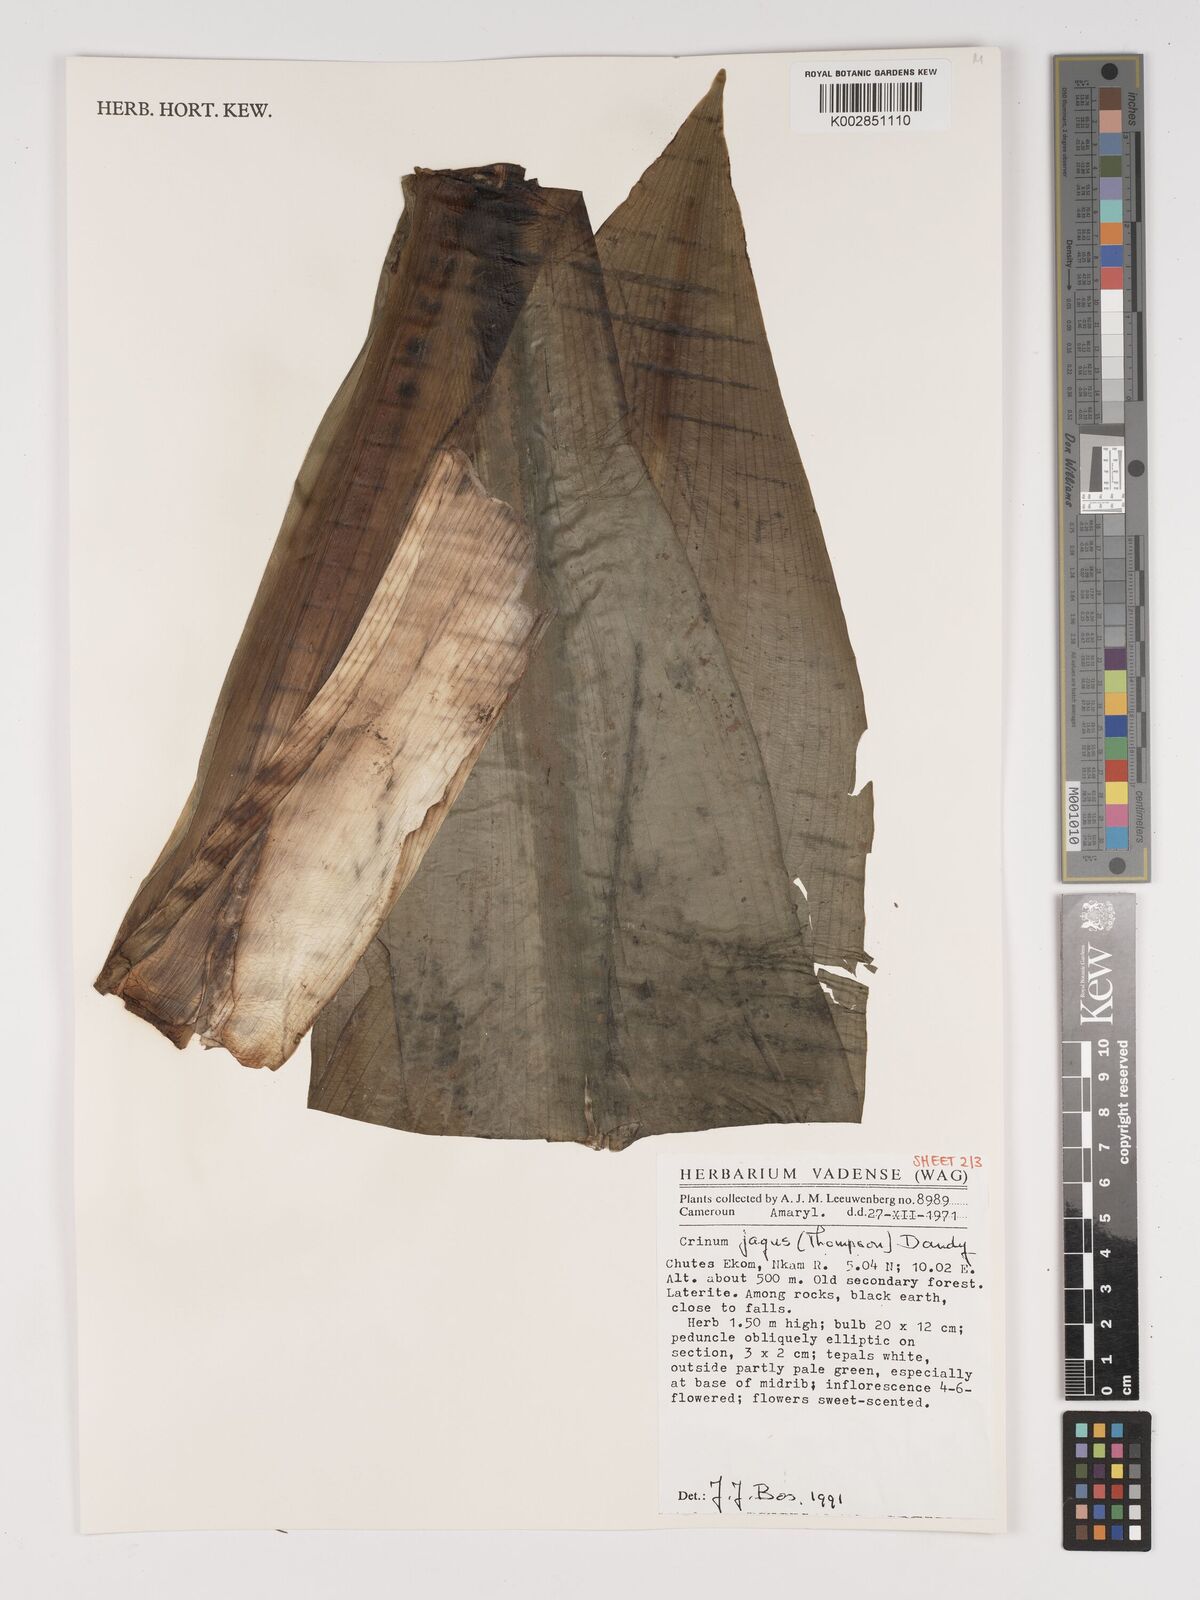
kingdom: Plantae
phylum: Tracheophyta
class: Liliopsida
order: Asparagales
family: Amaryllidaceae
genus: Crinum
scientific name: Crinum jagus
